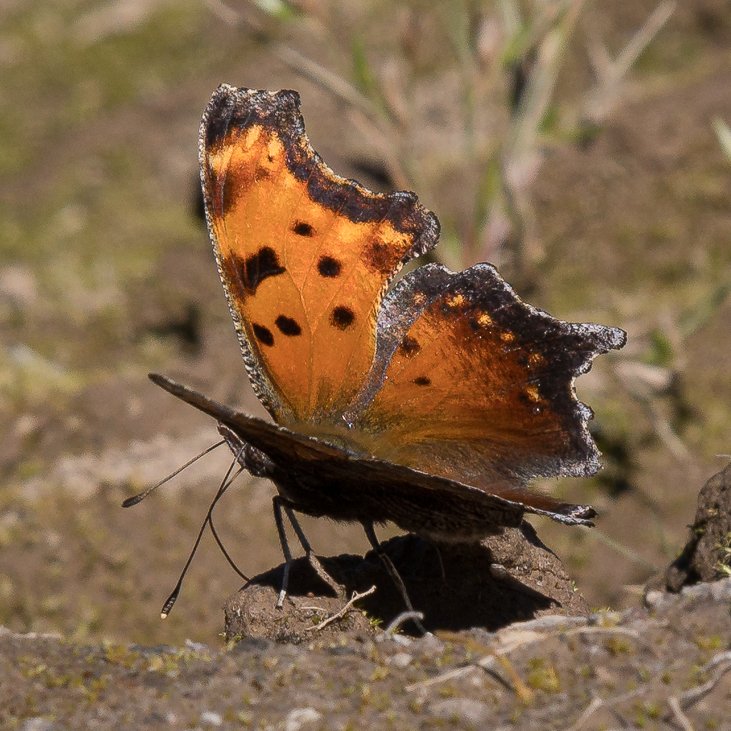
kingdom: Animalia
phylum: Arthropoda
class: Insecta
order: Lepidoptera
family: Nymphalidae
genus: Polygonia
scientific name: Polygonia progne
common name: Gray Comma
